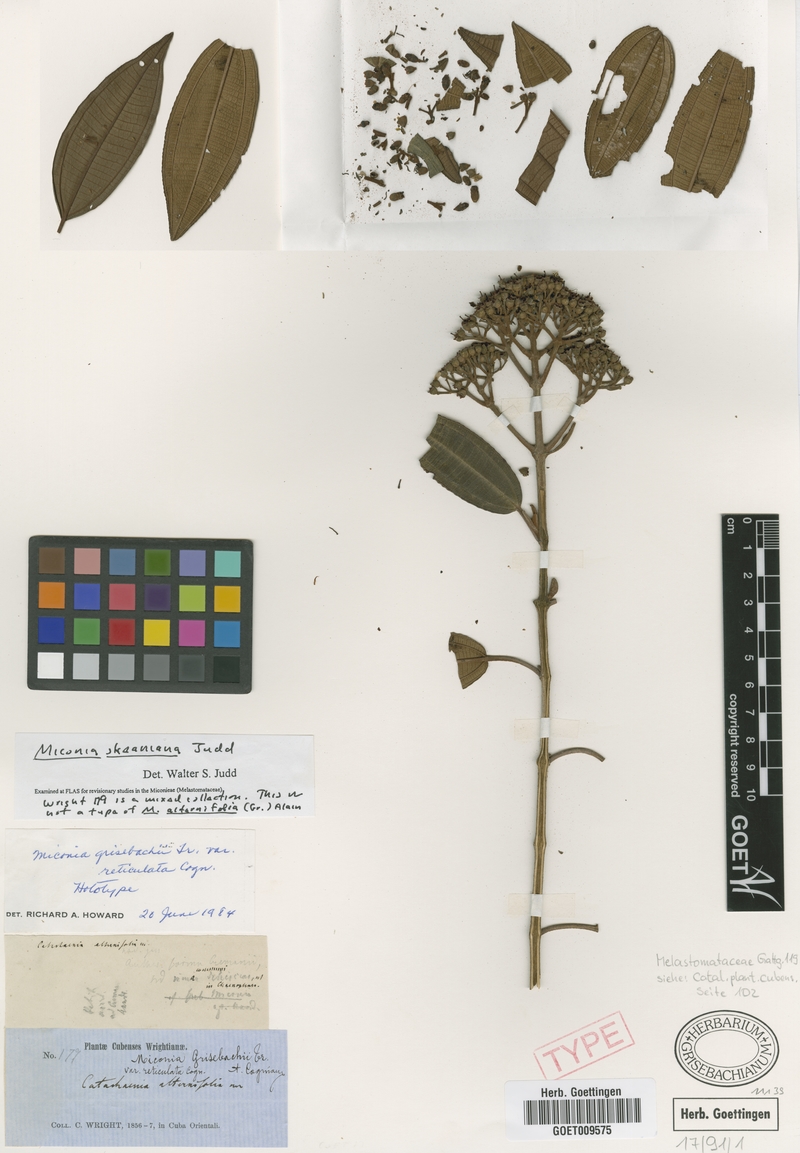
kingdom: Plantae
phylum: Tracheophyta
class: Magnoliopsida
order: Myrtales
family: Melastomataceae
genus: Miconia
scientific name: Miconia skeaniana
